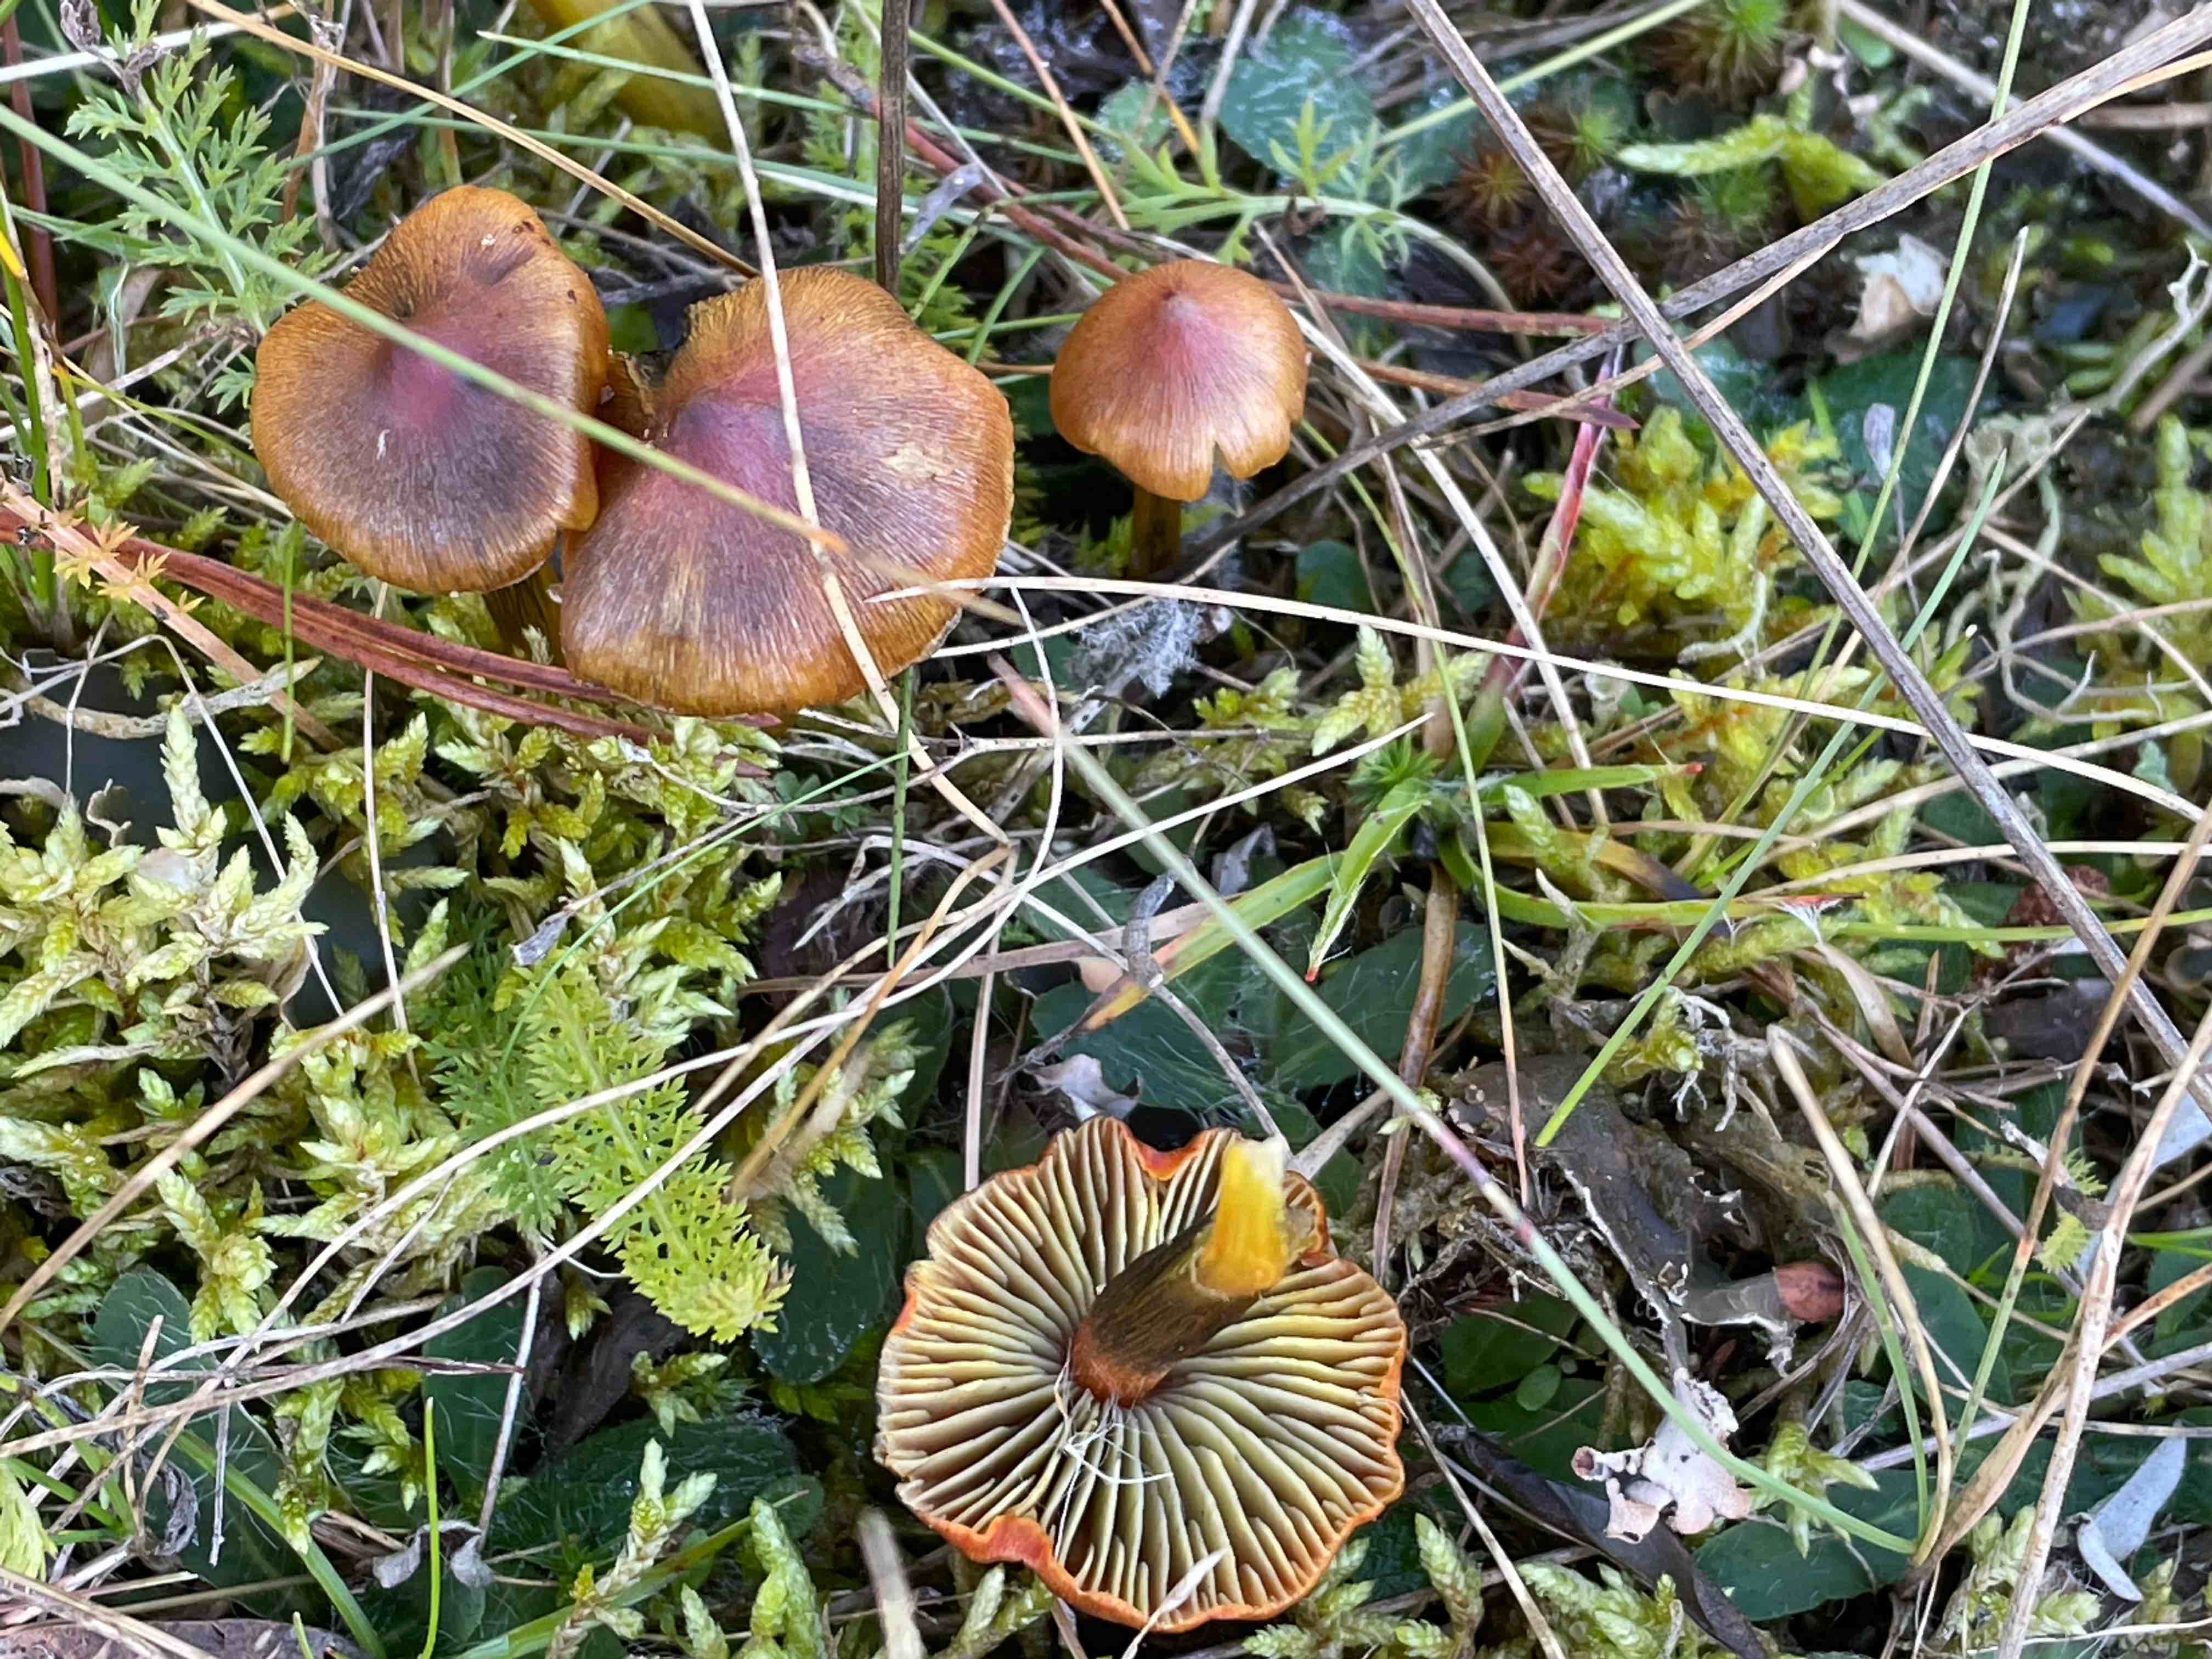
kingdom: Fungi
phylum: Basidiomycota
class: Agaricomycetes
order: Agaricales
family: Hygrophoraceae
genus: Hygrocybe
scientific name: Hygrocybe conica
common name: kegle-vokshat
